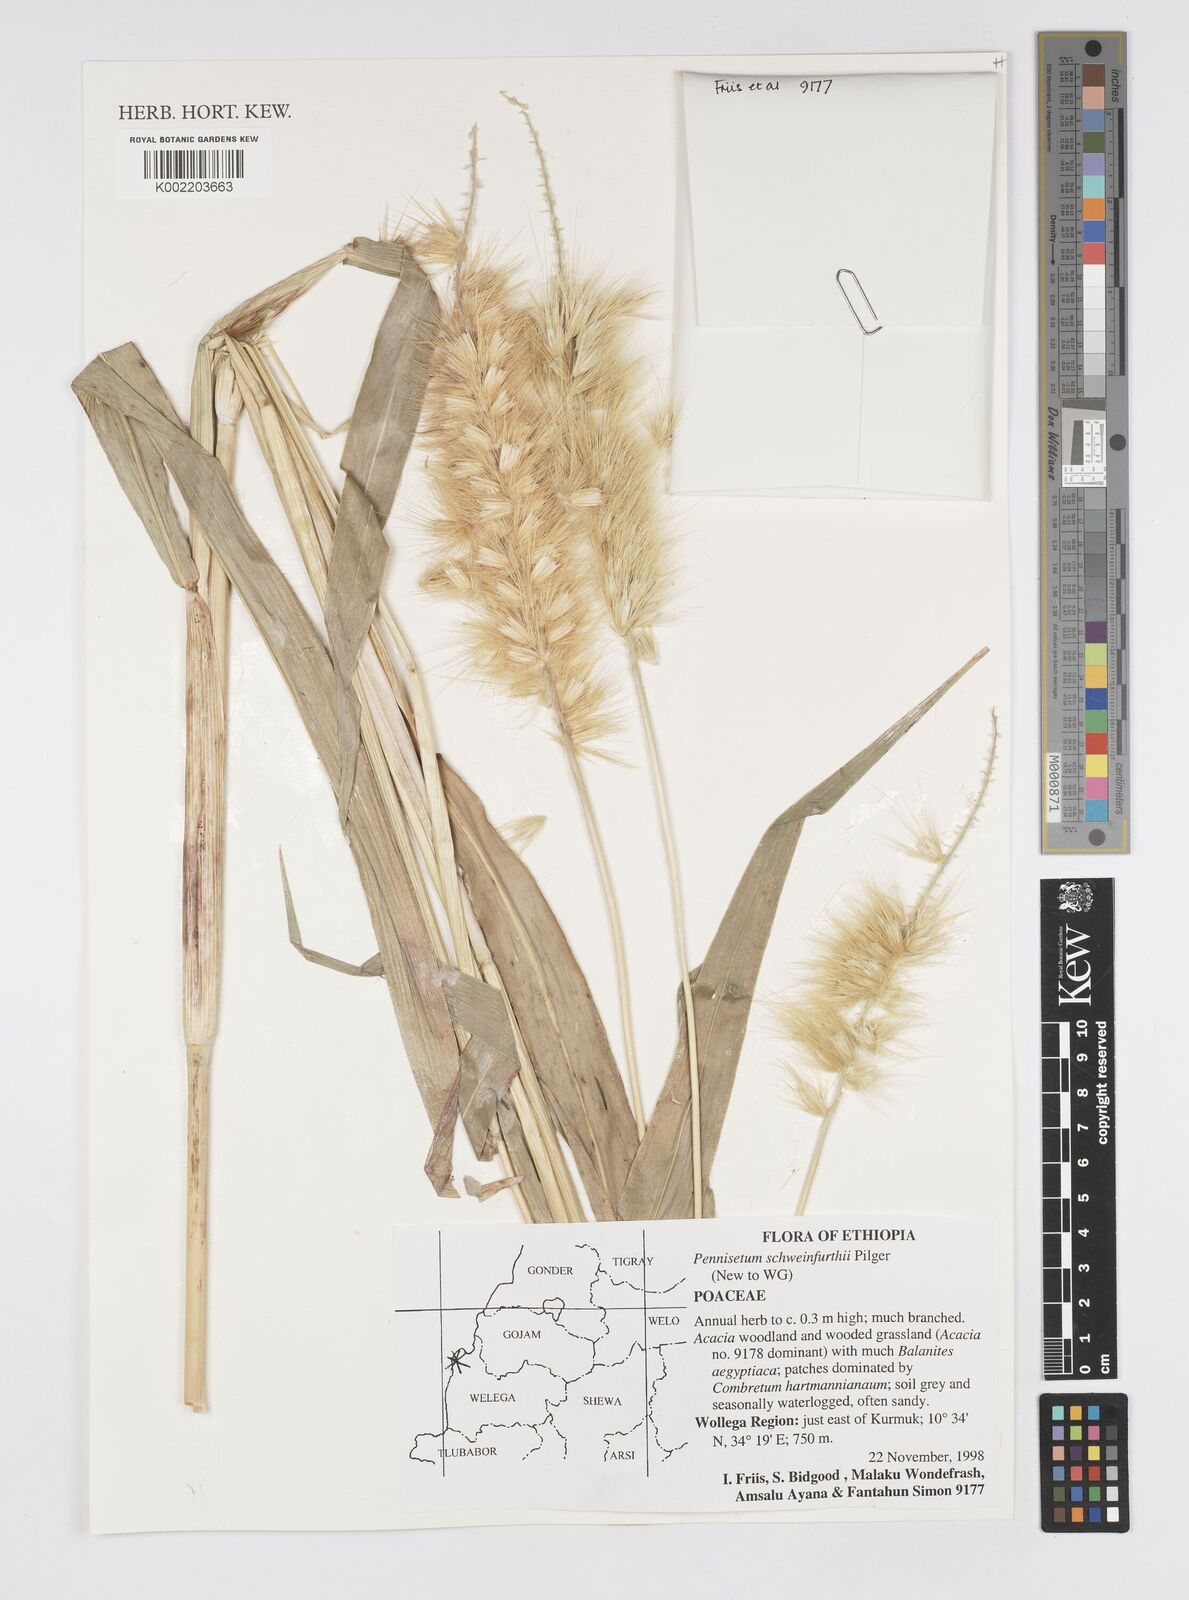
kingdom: Plantae
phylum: Tracheophyta
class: Liliopsida
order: Poales
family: Poaceae
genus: Cenchrus
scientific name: Cenchrus schweinfurthii
